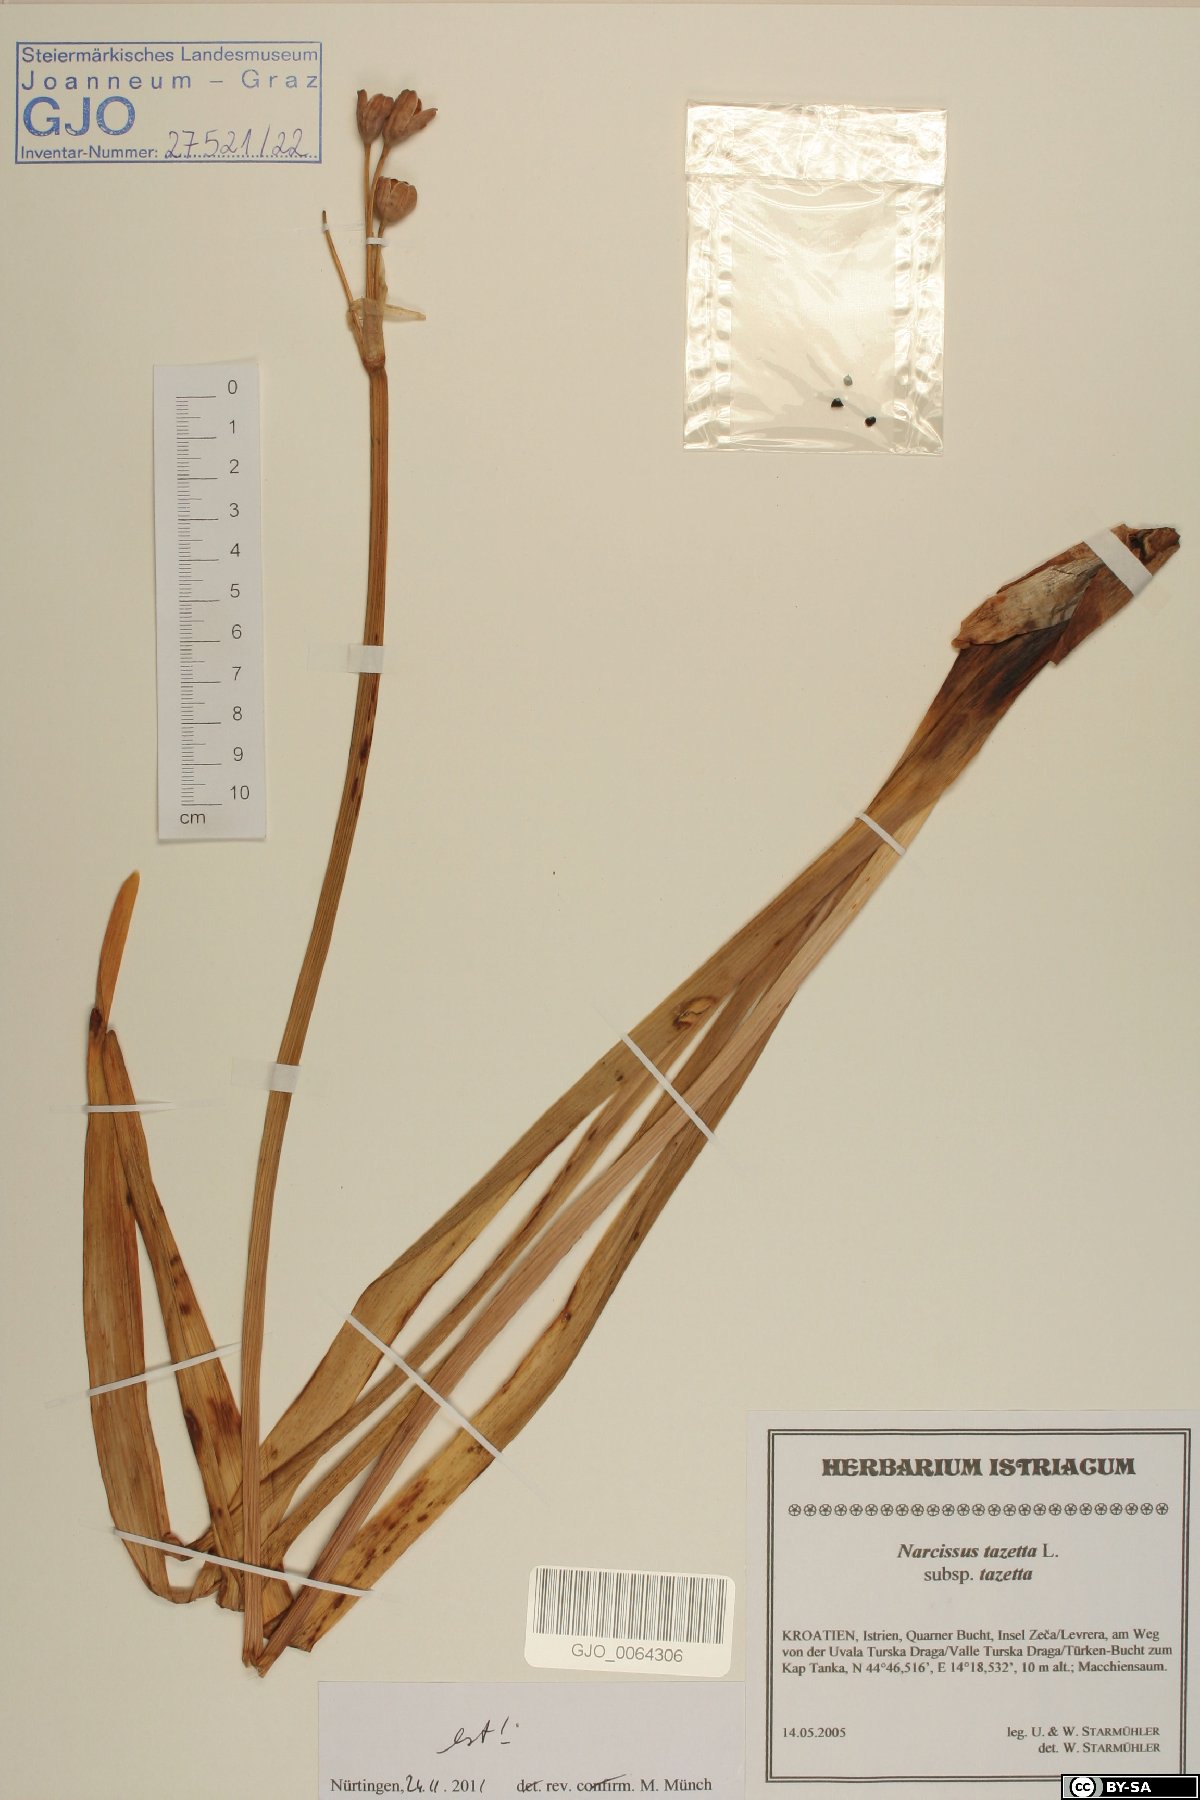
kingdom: Plantae
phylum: Tracheophyta
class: Liliopsida
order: Asparagales
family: Amaryllidaceae
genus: Narcissus
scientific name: Narcissus tazetta
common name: Bunch-flowered daffodil
